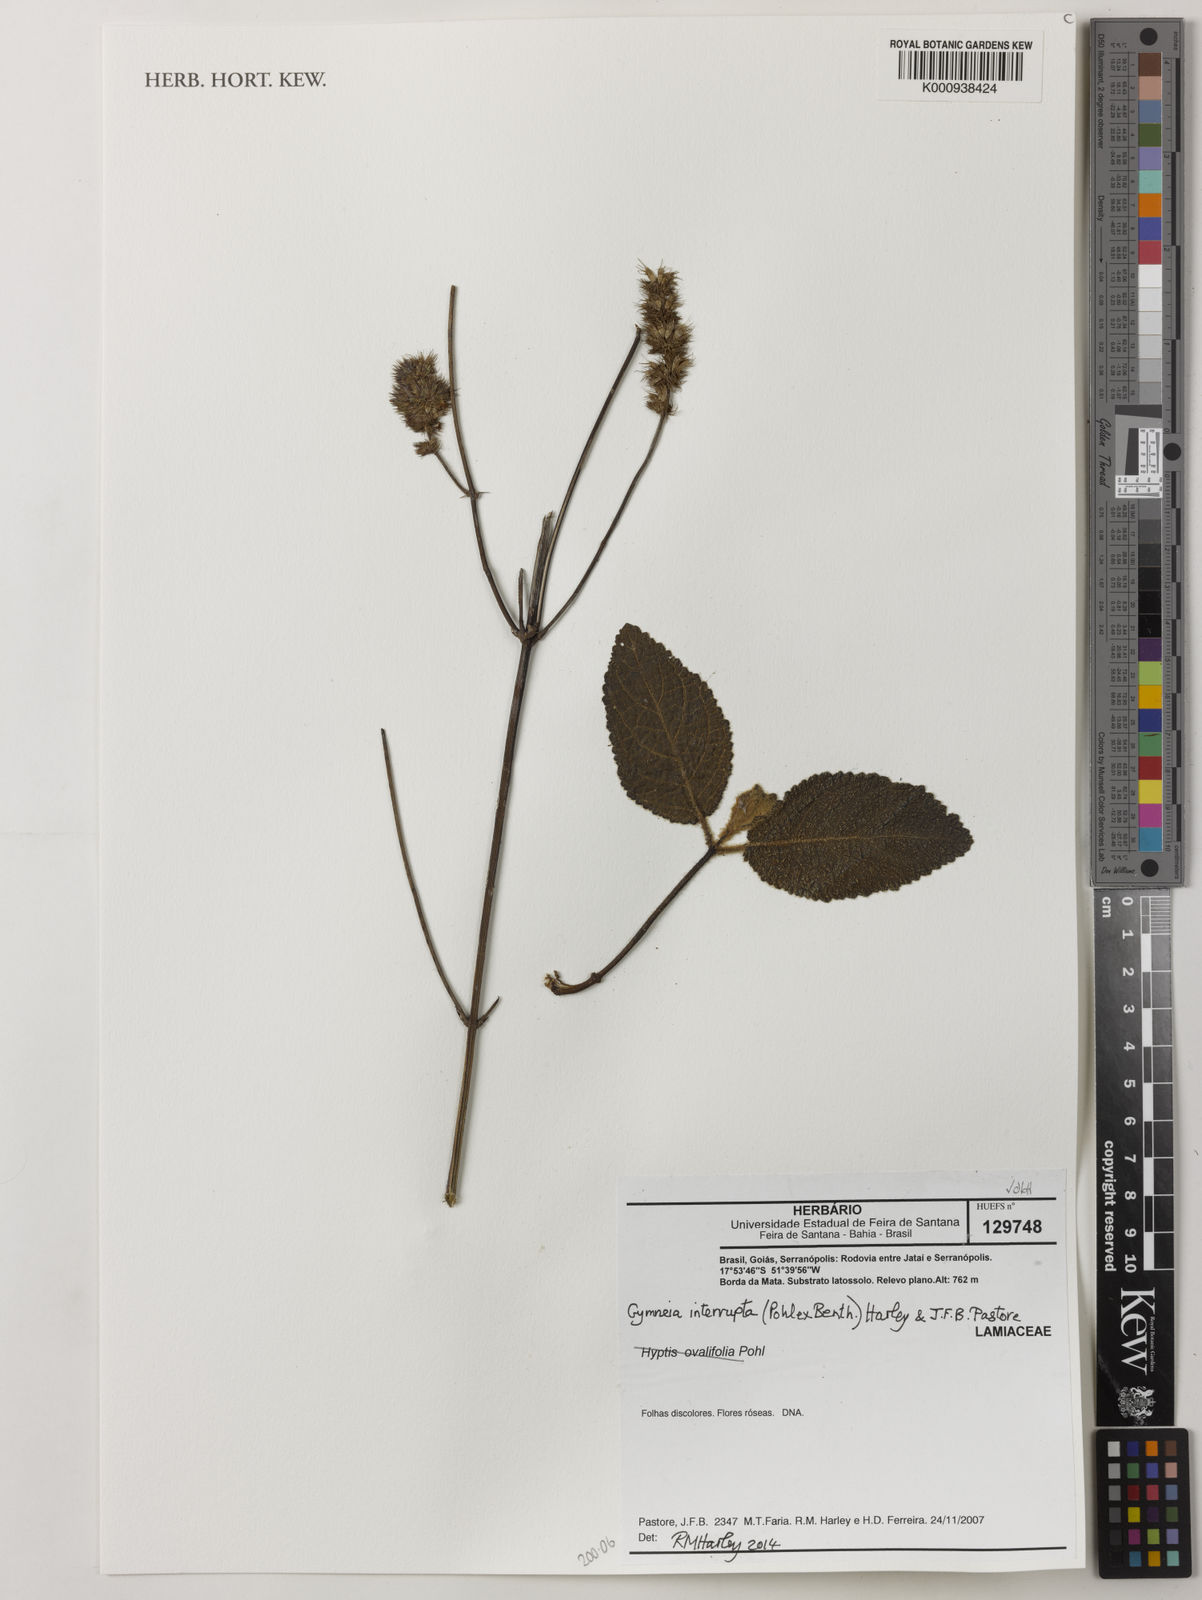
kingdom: Plantae
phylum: Tracheophyta
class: Magnoliopsida
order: Lamiales
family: Lamiaceae
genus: Gymneia
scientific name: Gymneia interrupta
